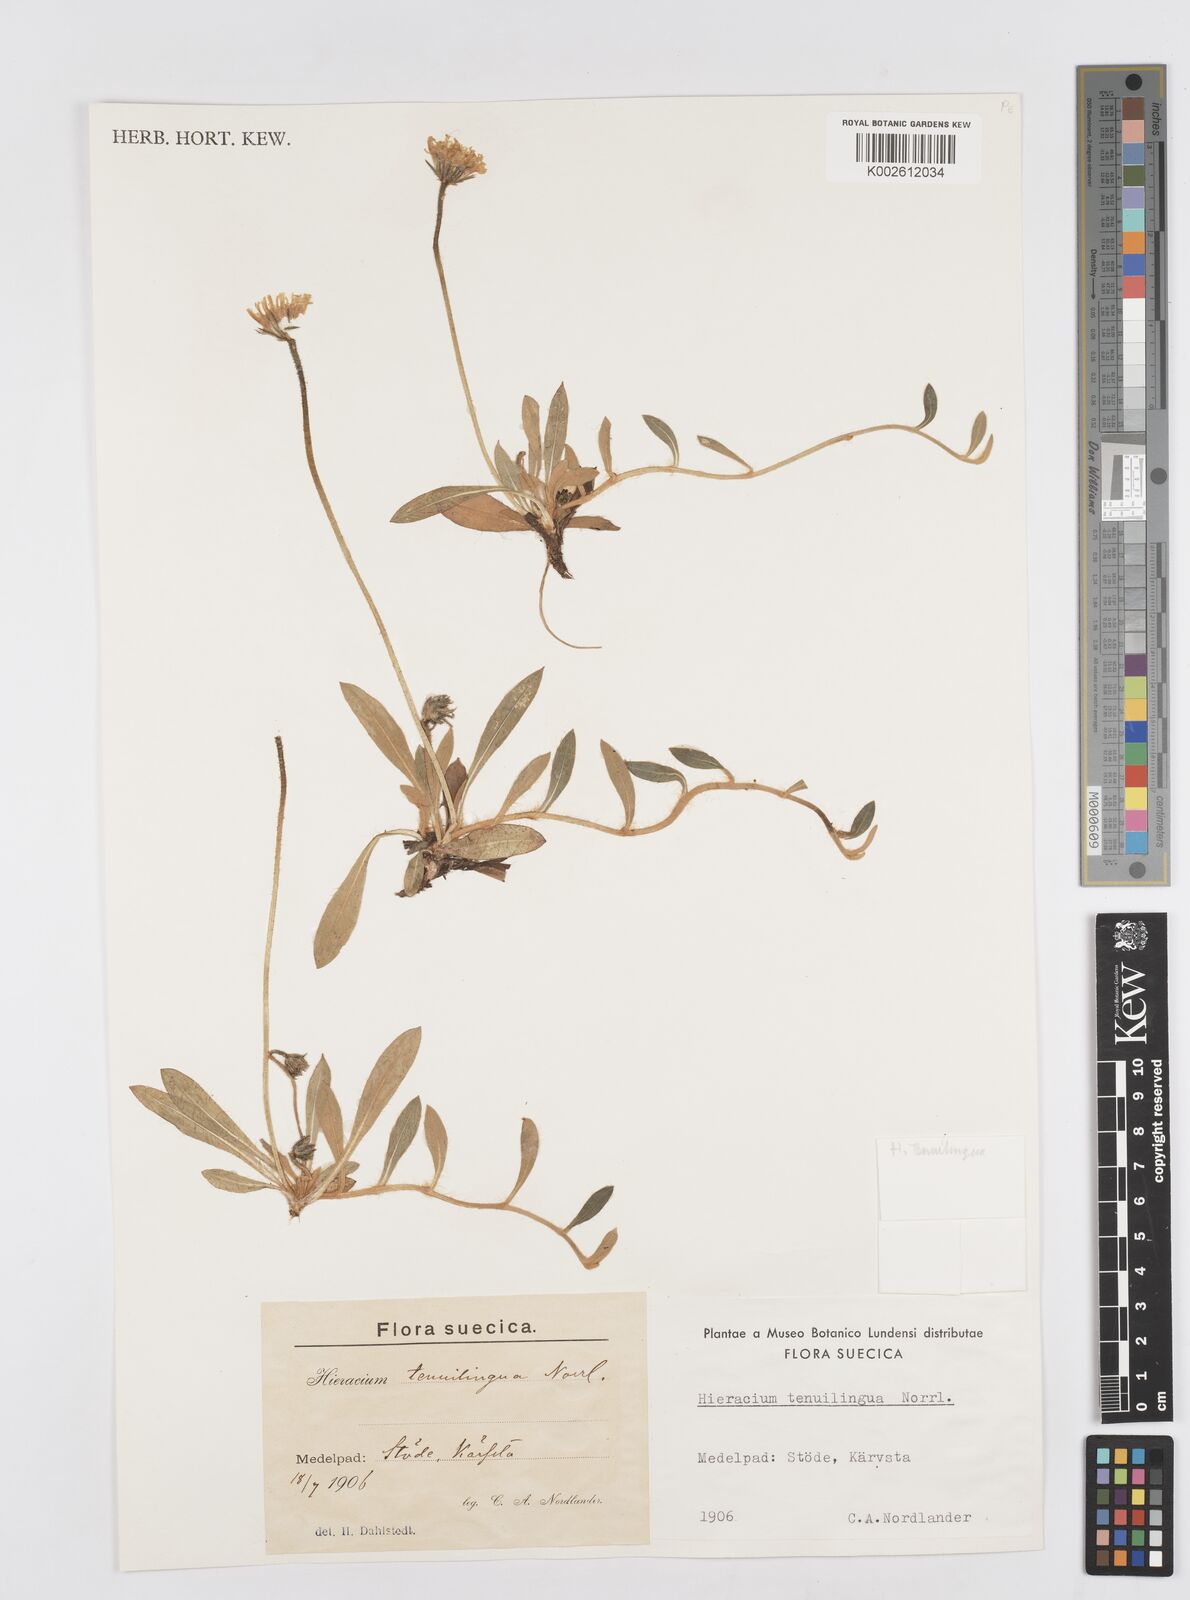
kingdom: Plantae
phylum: Tracheophyta
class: Magnoliopsida
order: Asterales
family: Asteraceae
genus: Pilosella
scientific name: Pilosella officinarum
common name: Mouse-ear hawkweed
